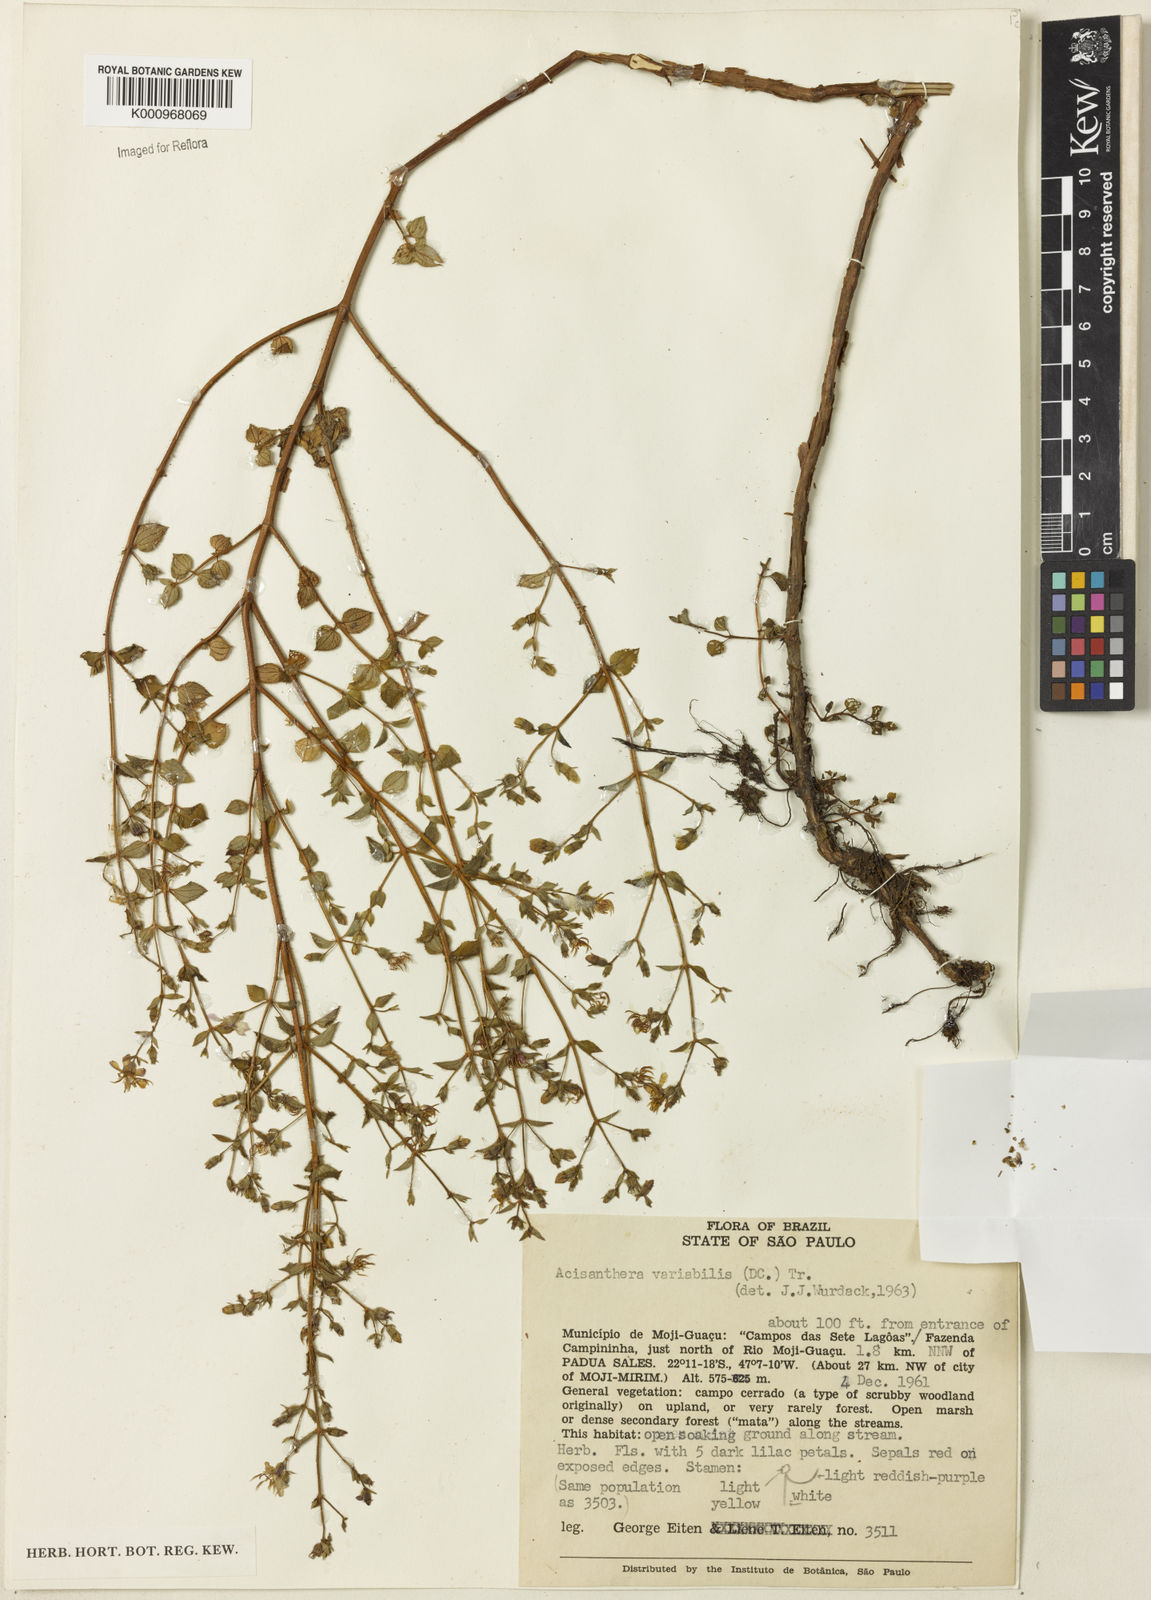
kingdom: Plantae
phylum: Tracheophyta
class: Magnoliopsida
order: Myrtales
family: Melastomataceae
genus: Acisanthera
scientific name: Acisanthera variabilis
